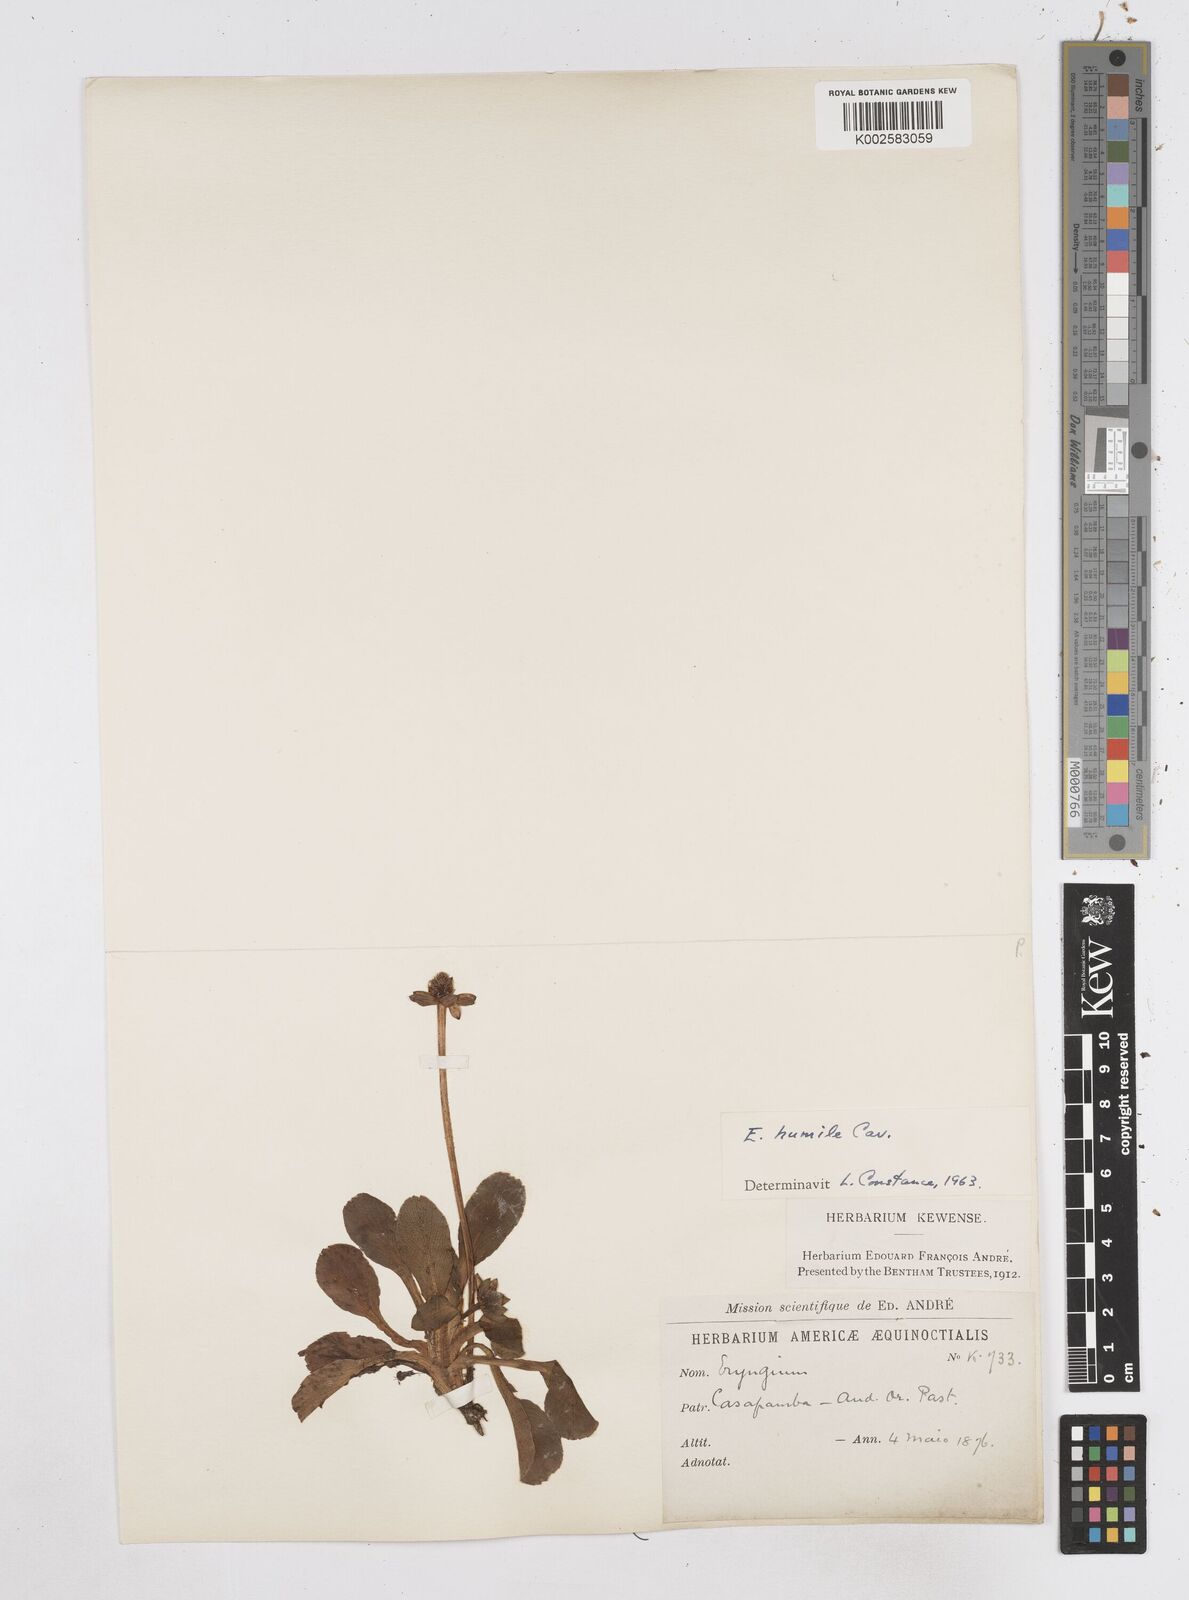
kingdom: Plantae
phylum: Tracheophyta
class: Magnoliopsida
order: Apiales
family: Apiaceae
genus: Eryngium
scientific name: Eryngium humile
